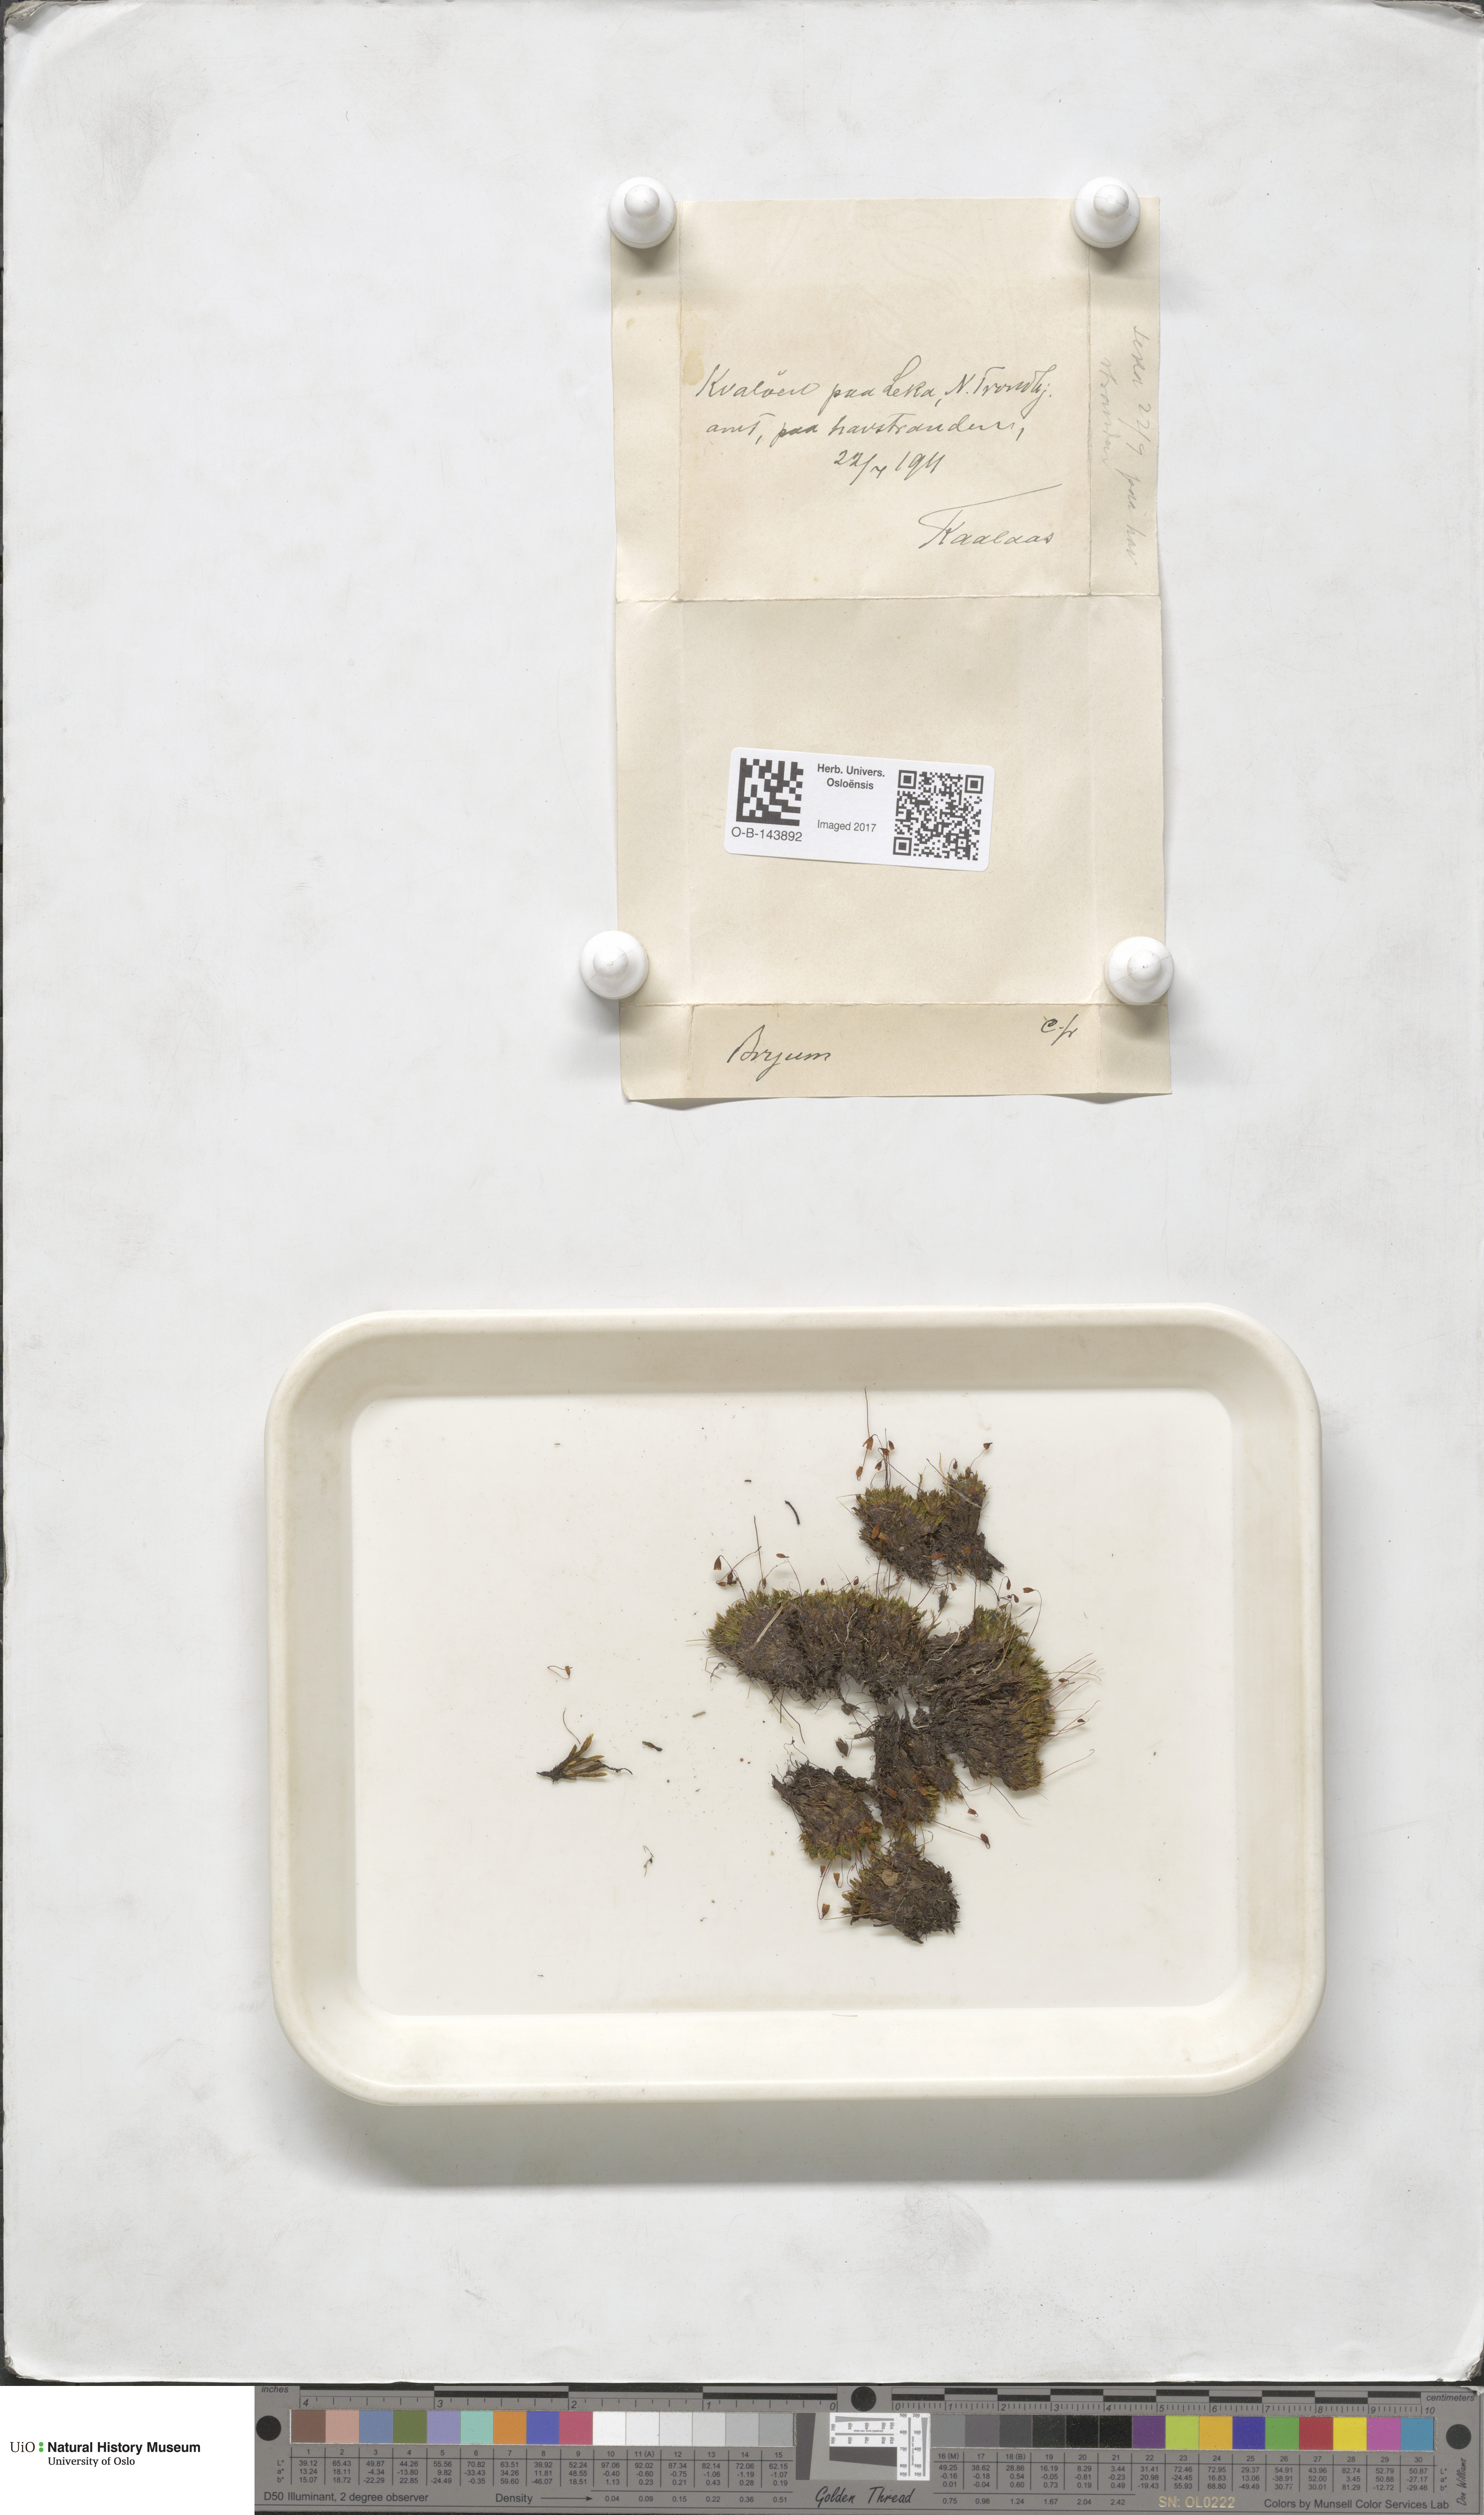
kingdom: Plantae
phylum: Bryophyta
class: Bryopsida
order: Bryales
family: Bryaceae
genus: Bryum
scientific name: Bryum
